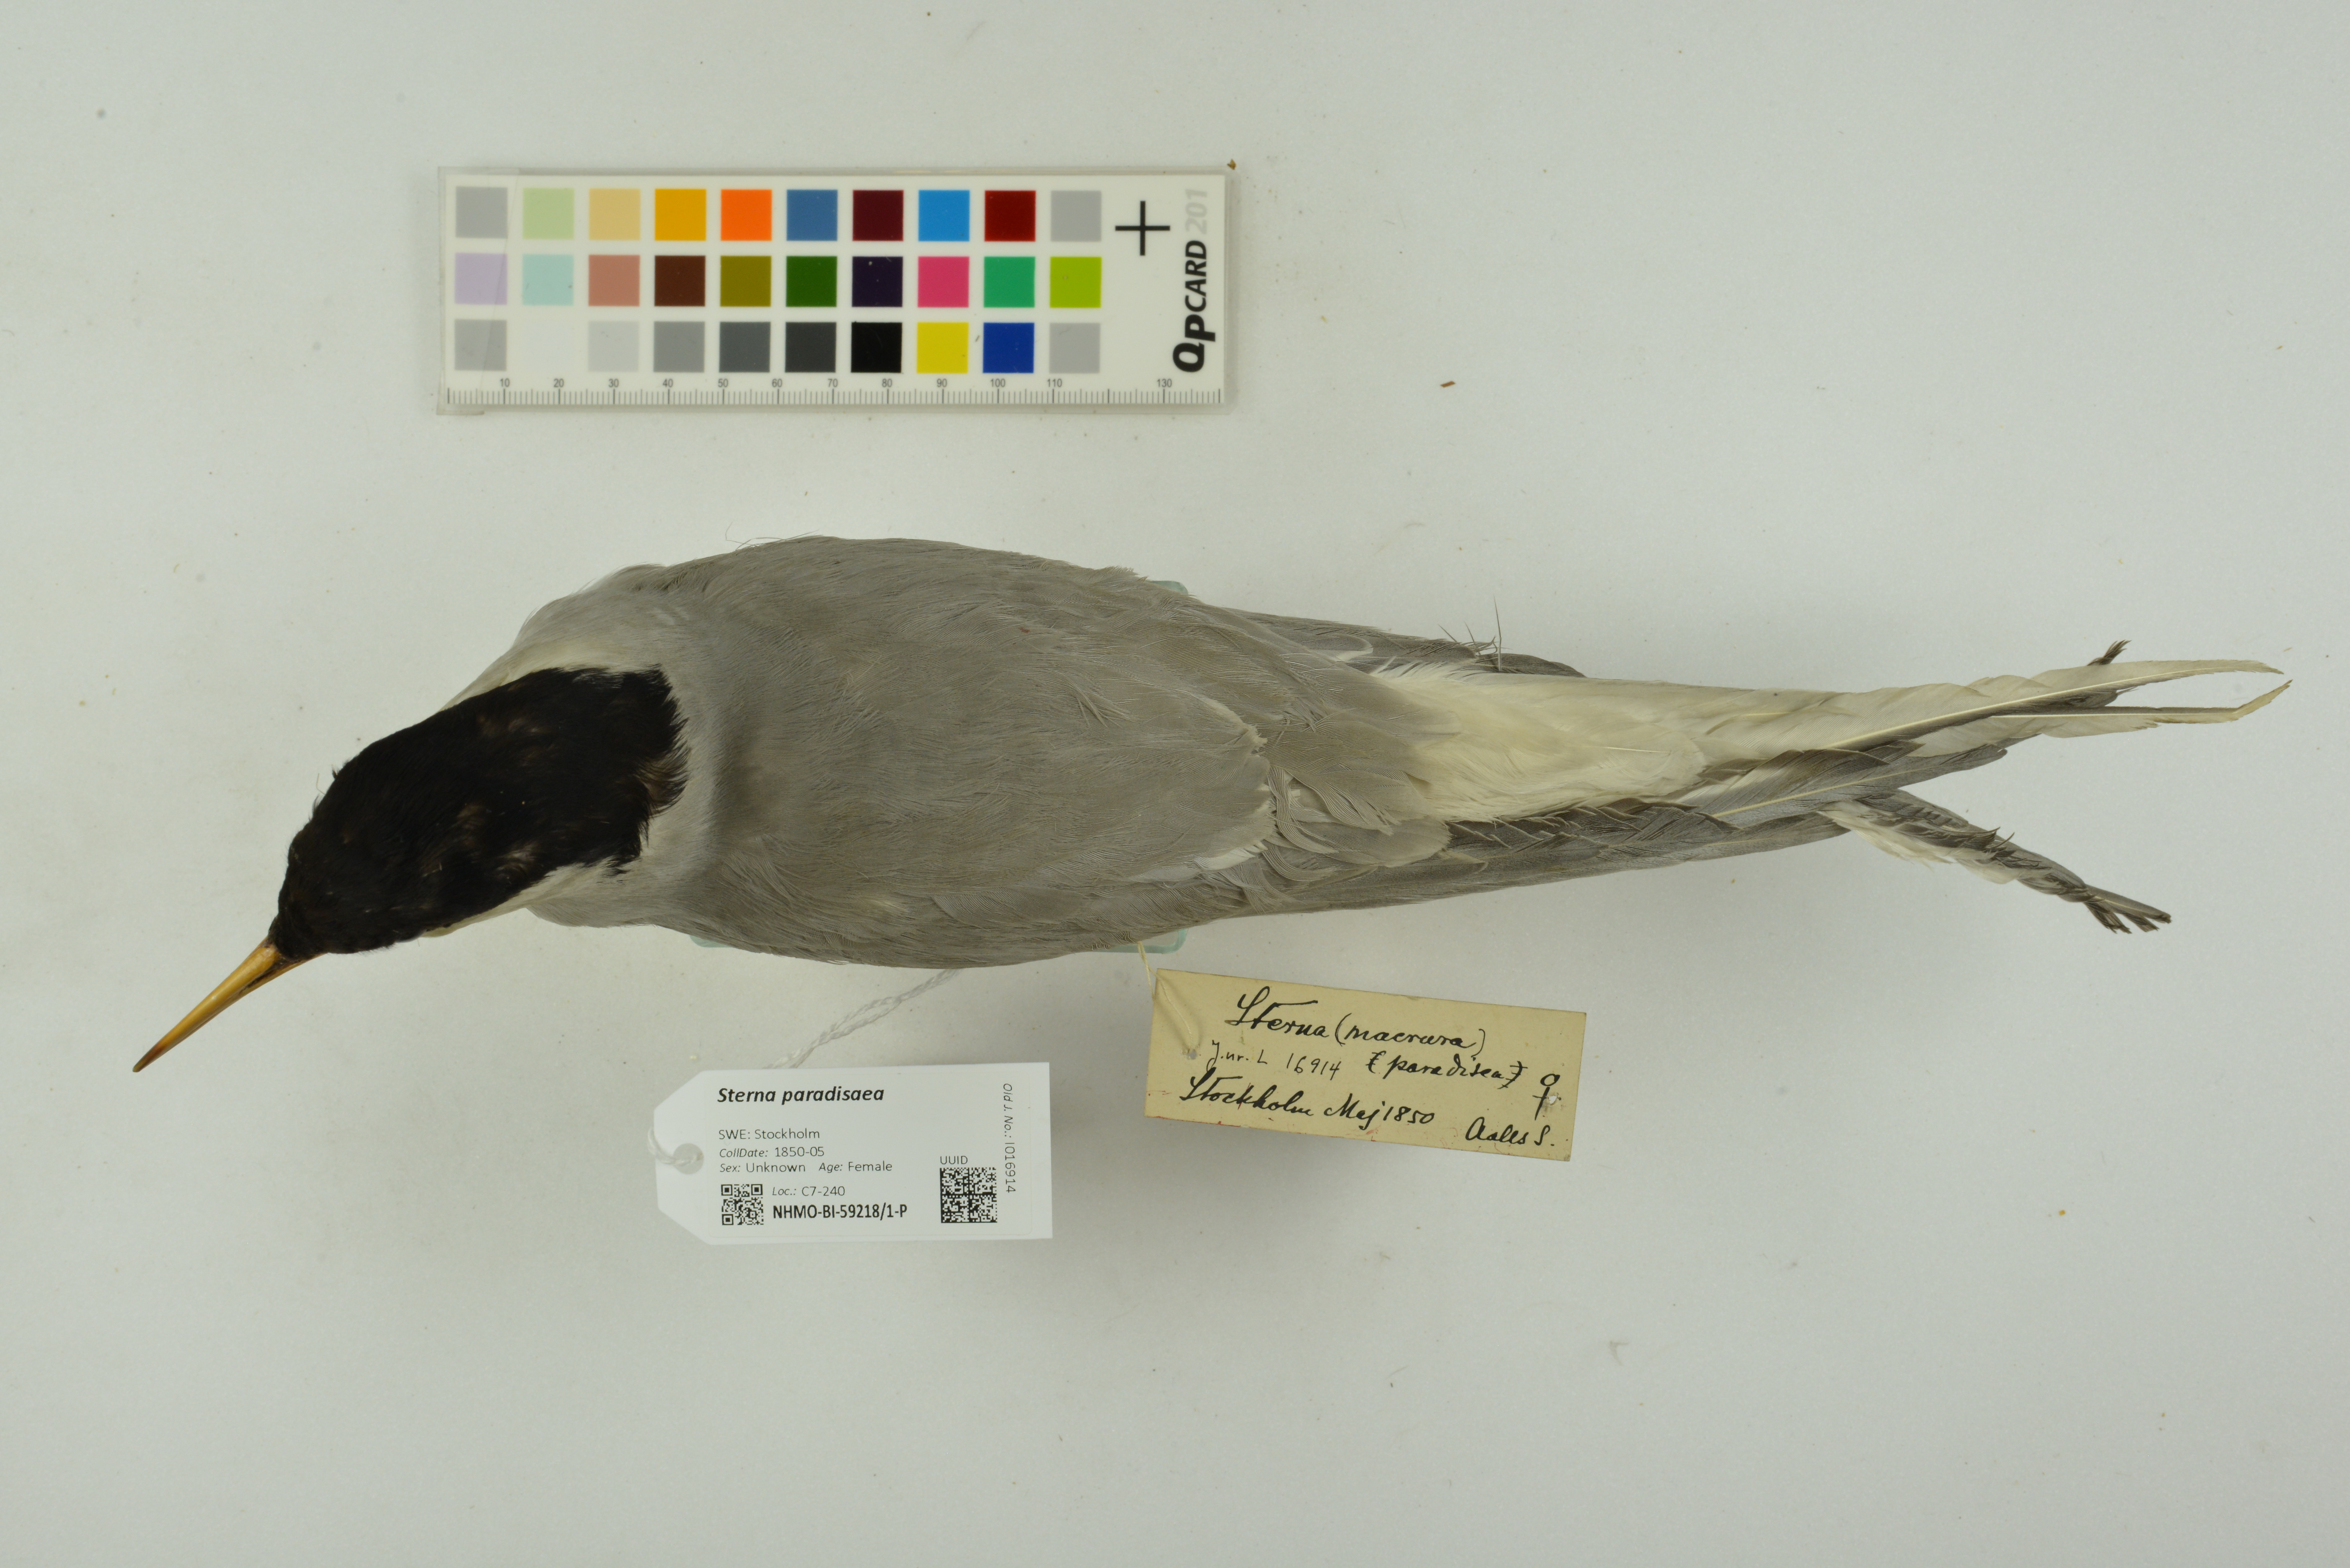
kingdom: Animalia
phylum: Chordata
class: Aves
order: Charadriiformes
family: Laridae
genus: Sterna
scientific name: Sterna paradisaea
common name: Arctic tern
